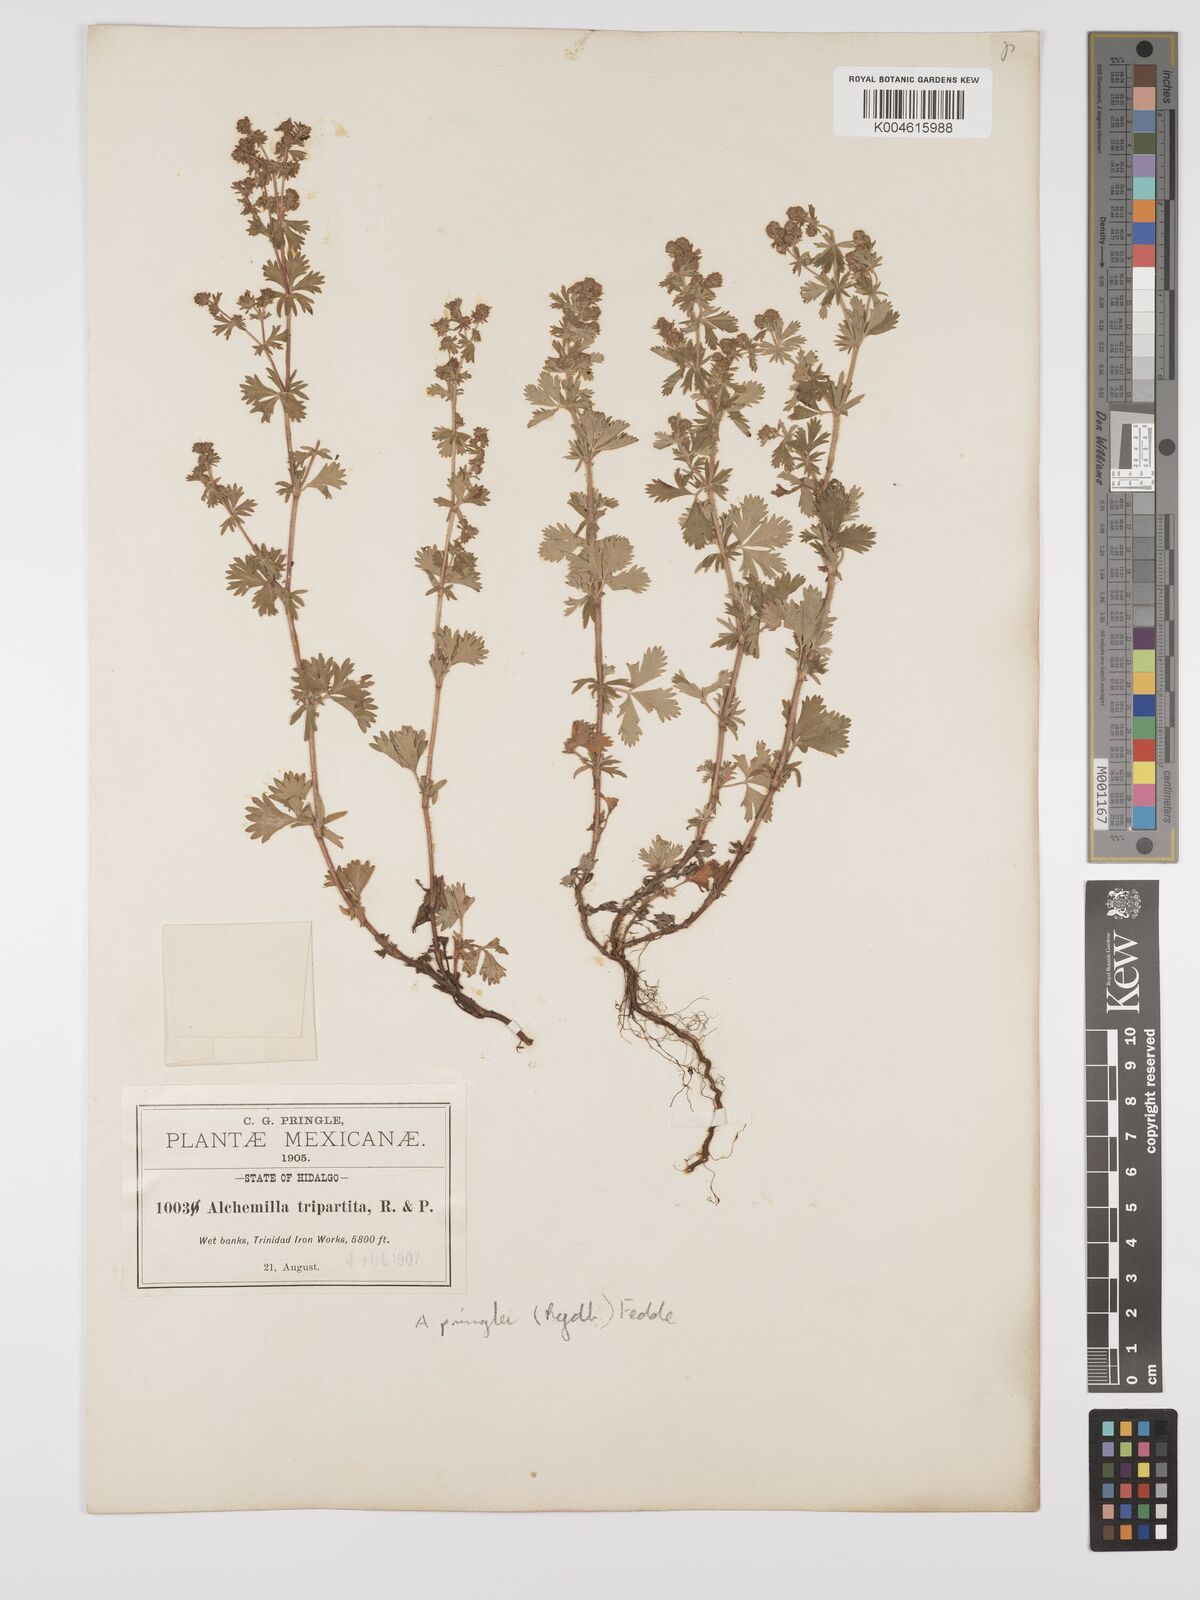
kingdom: Plantae
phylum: Tracheophyta
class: Magnoliopsida
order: Rosales
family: Rosaceae
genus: Lachemilla
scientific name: Lachemilla sibbaldiifolia
